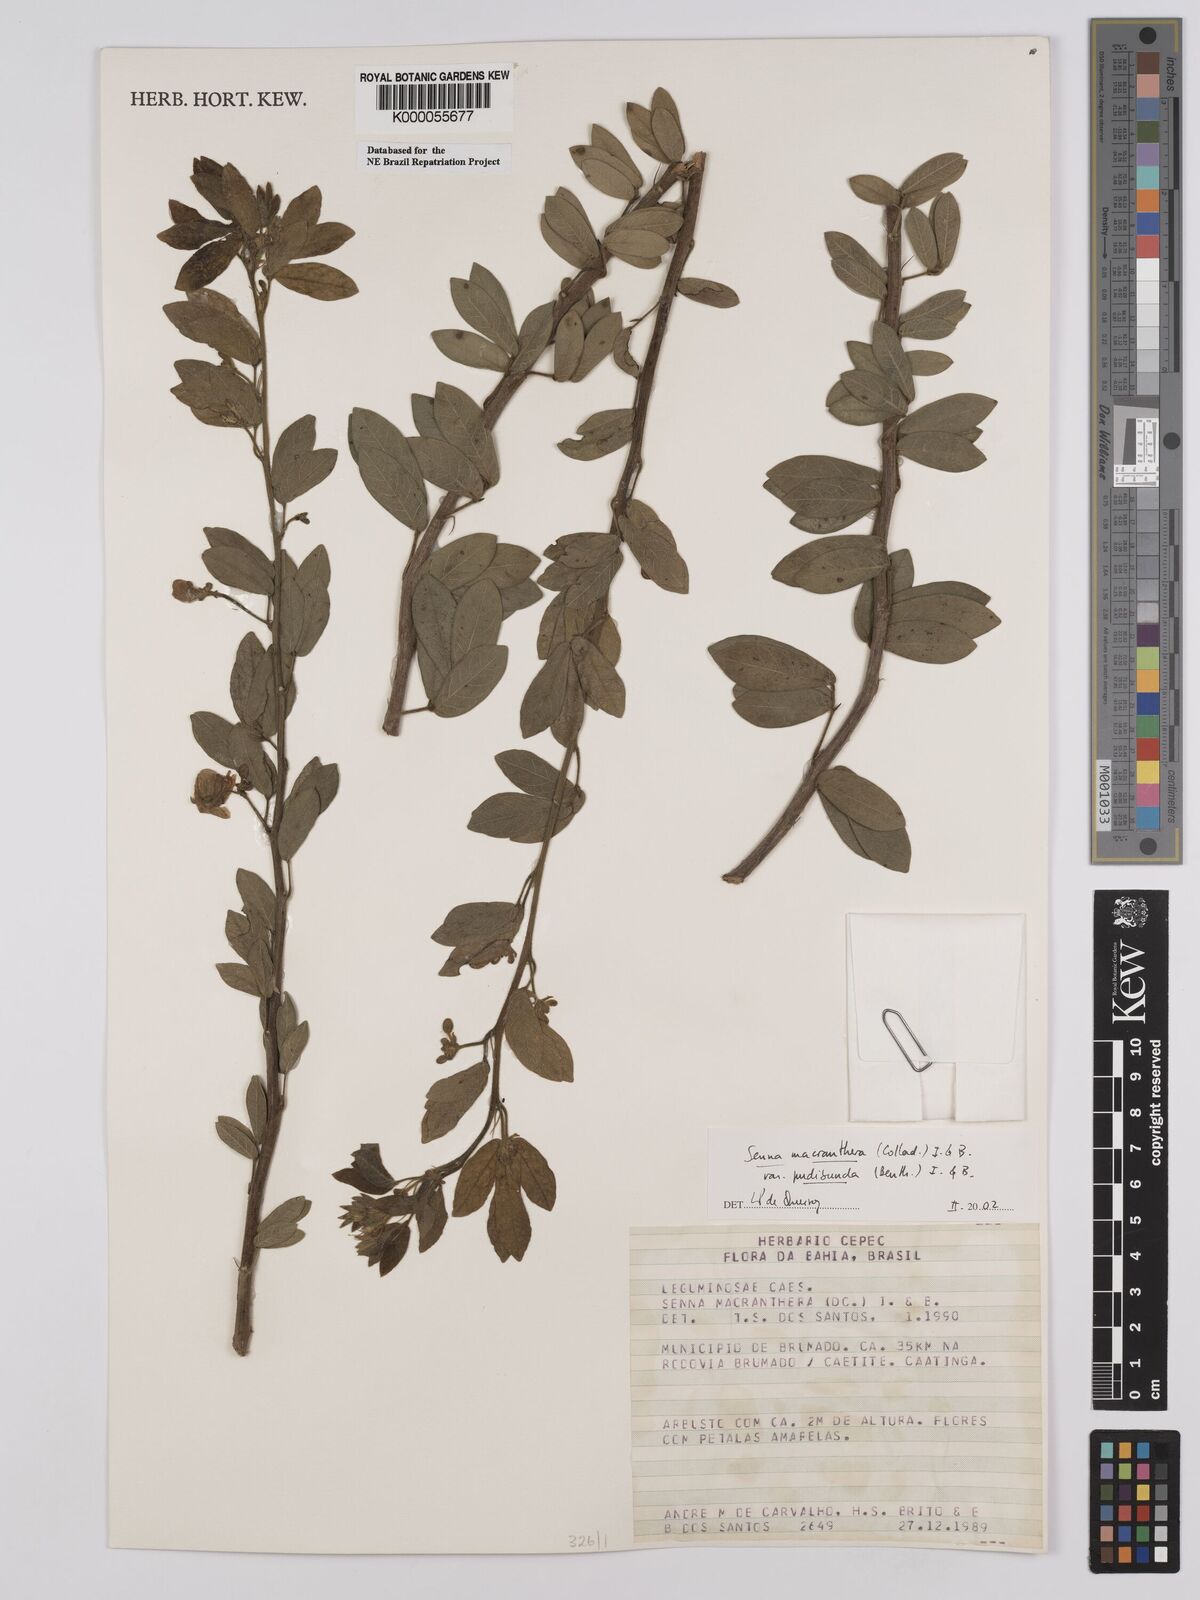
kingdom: Plantae
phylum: Tracheophyta
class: Magnoliopsida
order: Fabales
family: Fabaceae
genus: Senna
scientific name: Senna macranthera
